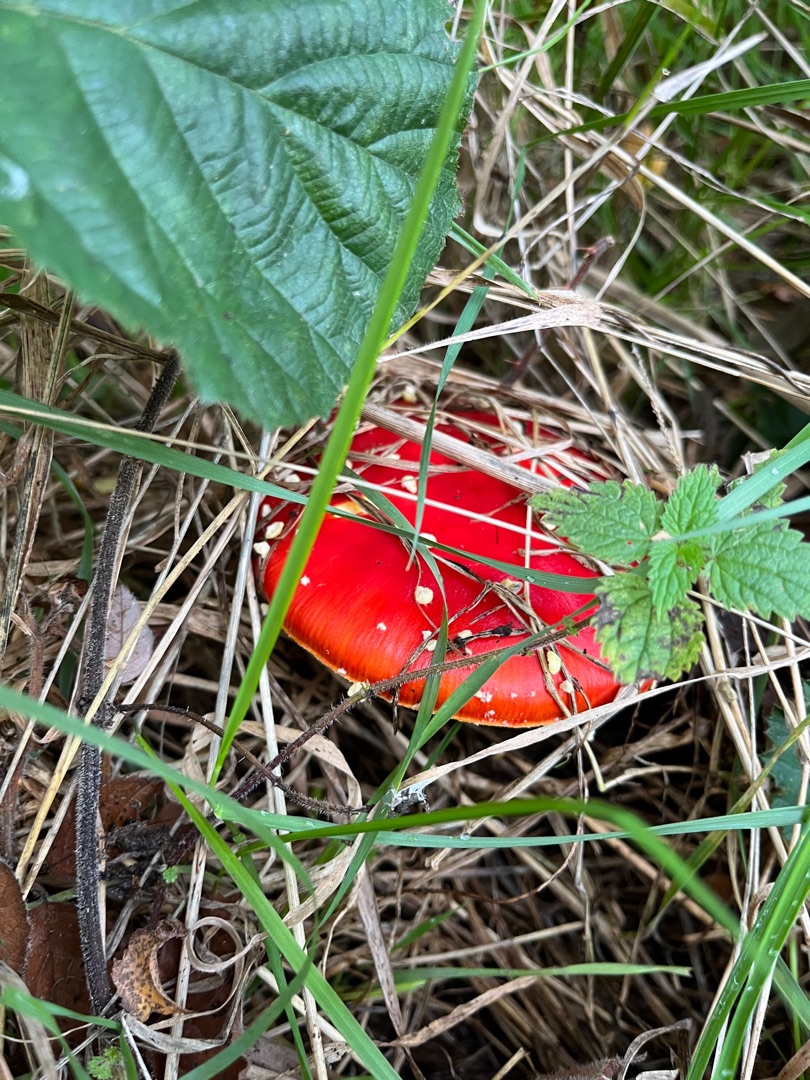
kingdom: Fungi
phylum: Basidiomycota
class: Agaricomycetes
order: Agaricales
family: Amanitaceae
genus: Amanita
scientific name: Amanita muscaria
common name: Rød fluesvamp
